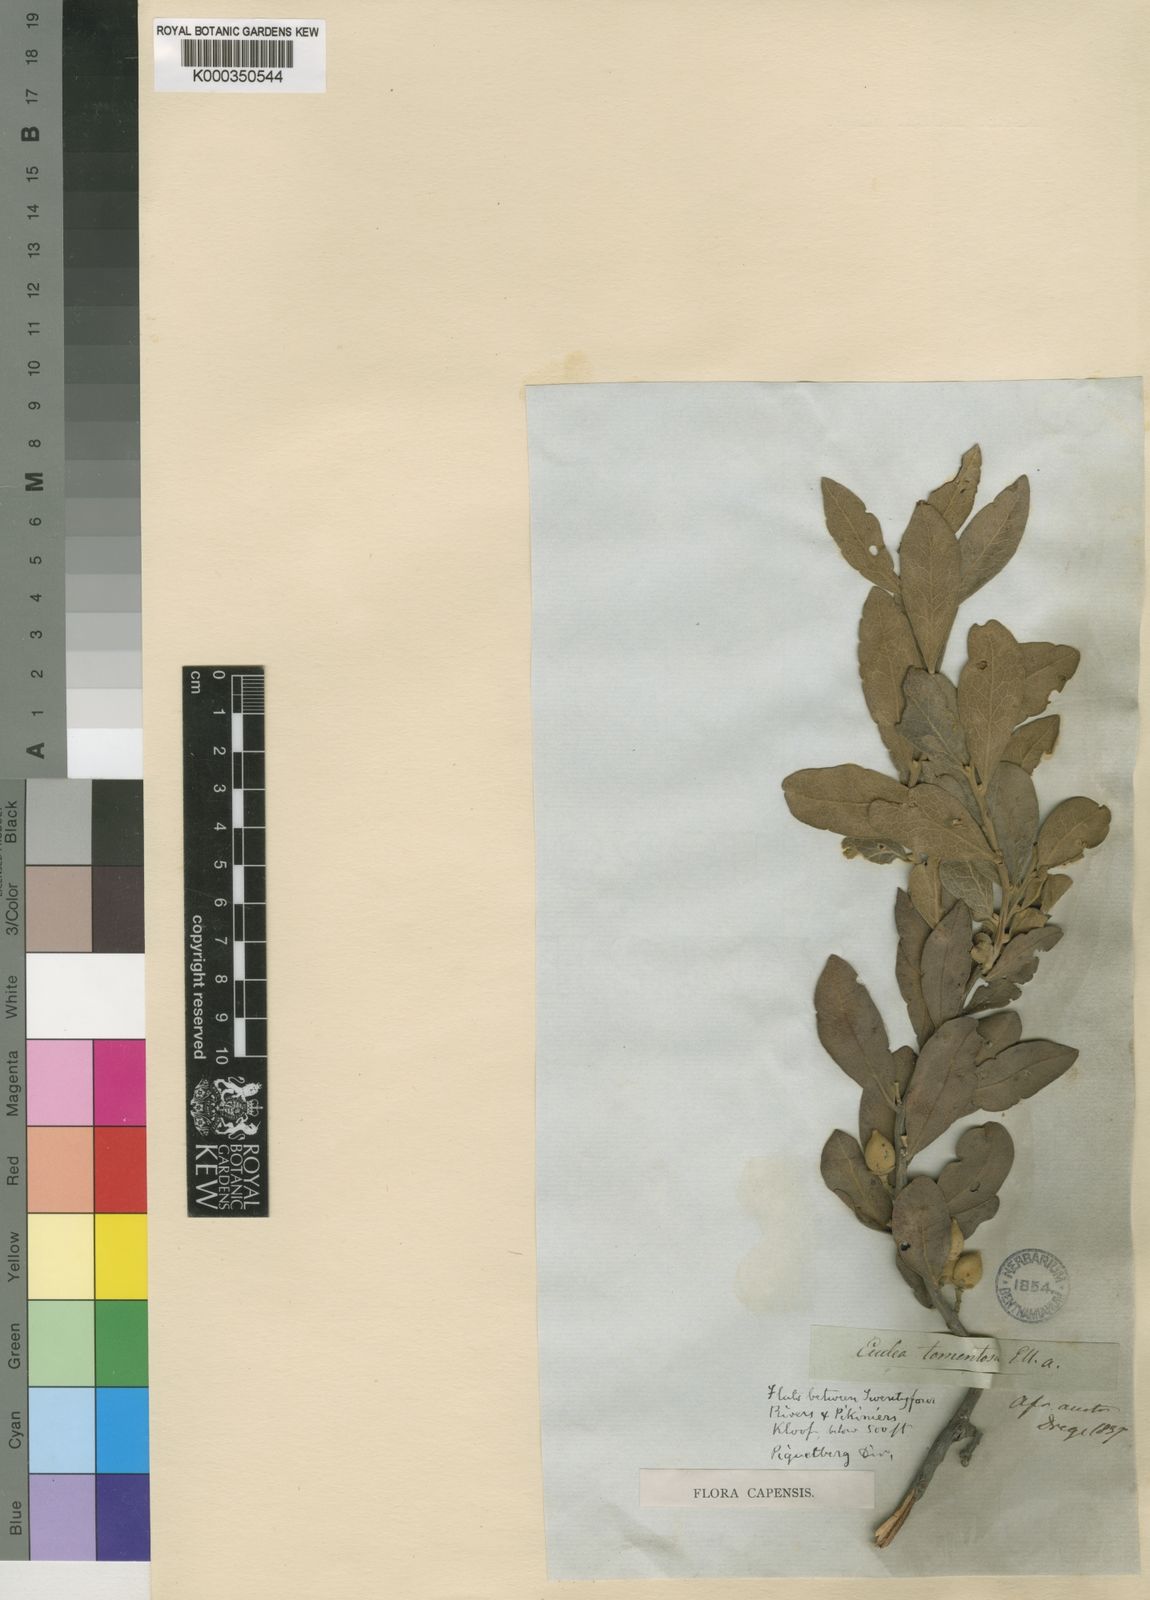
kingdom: Plantae
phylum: Tracheophyta
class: Magnoliopsida
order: Ericales
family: Ebenaceae
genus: Euclea
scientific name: Euclea
